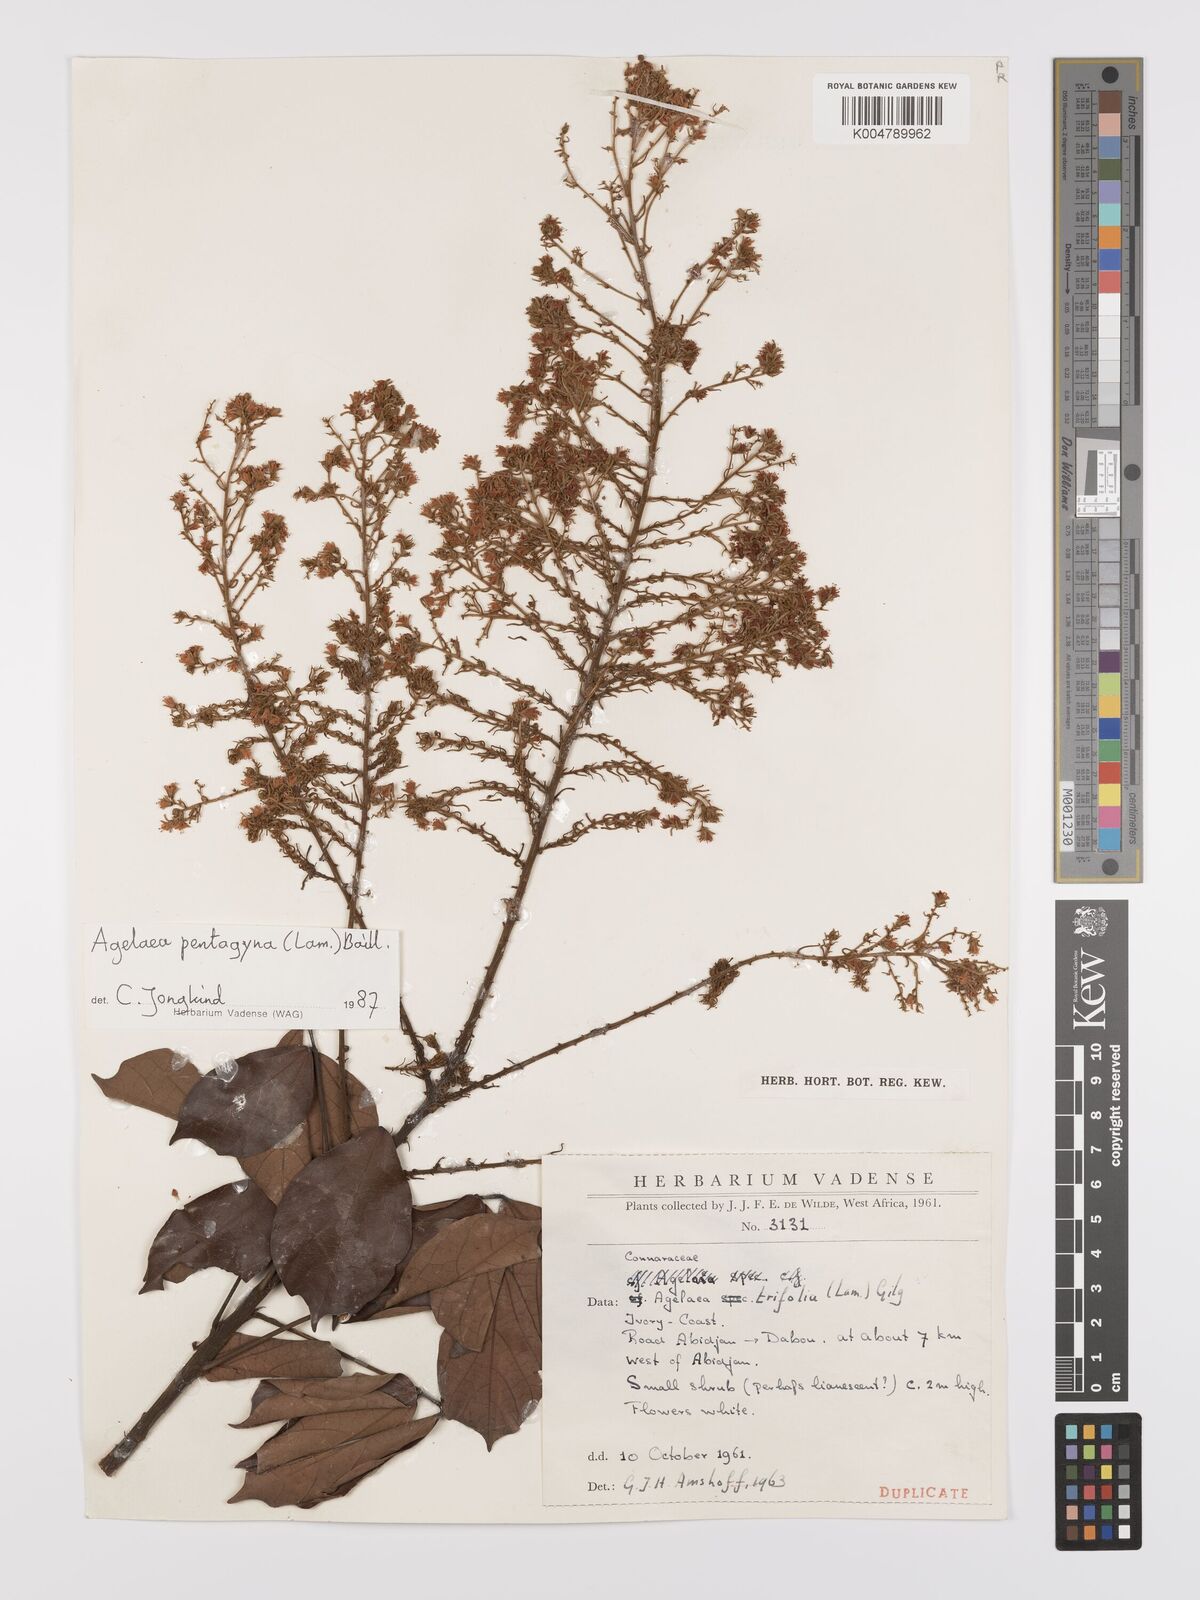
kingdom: Plantae
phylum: Tracheophyta
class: Magnoliopsida
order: Oxalidales
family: Connaraceae
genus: Agelaea
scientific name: Agelaea pentagyna
